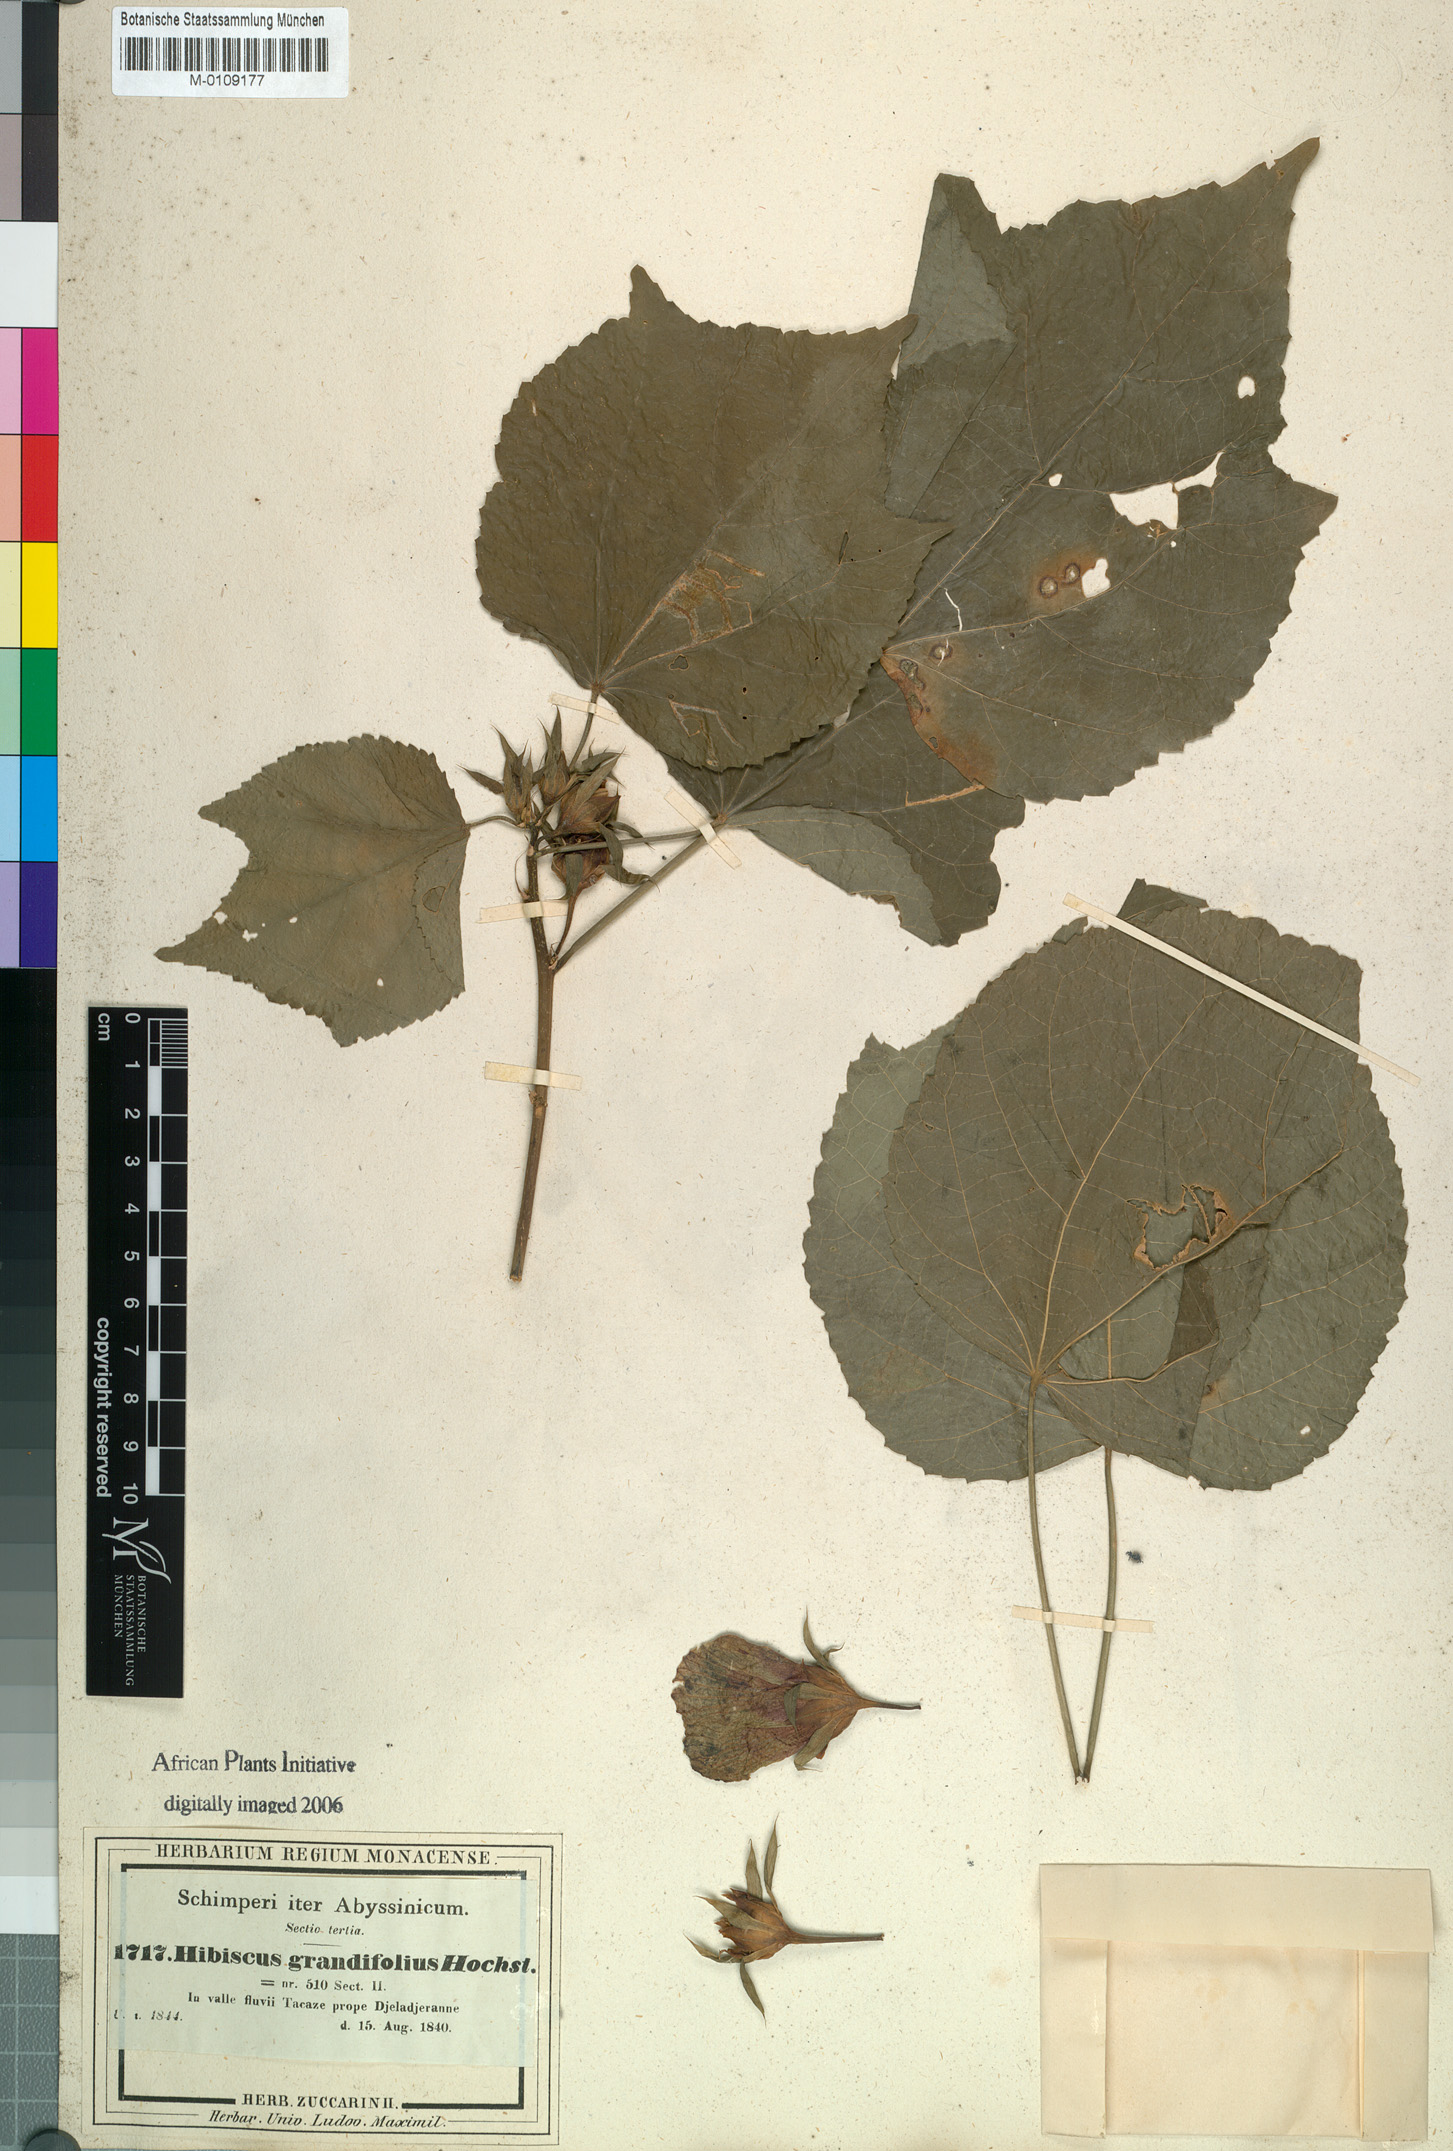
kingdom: Plantae
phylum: Tracheophyta
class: Magnoliopsida
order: Malvales
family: Malvaceae
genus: Hibiscus
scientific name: Hibiscus calyphyllus
